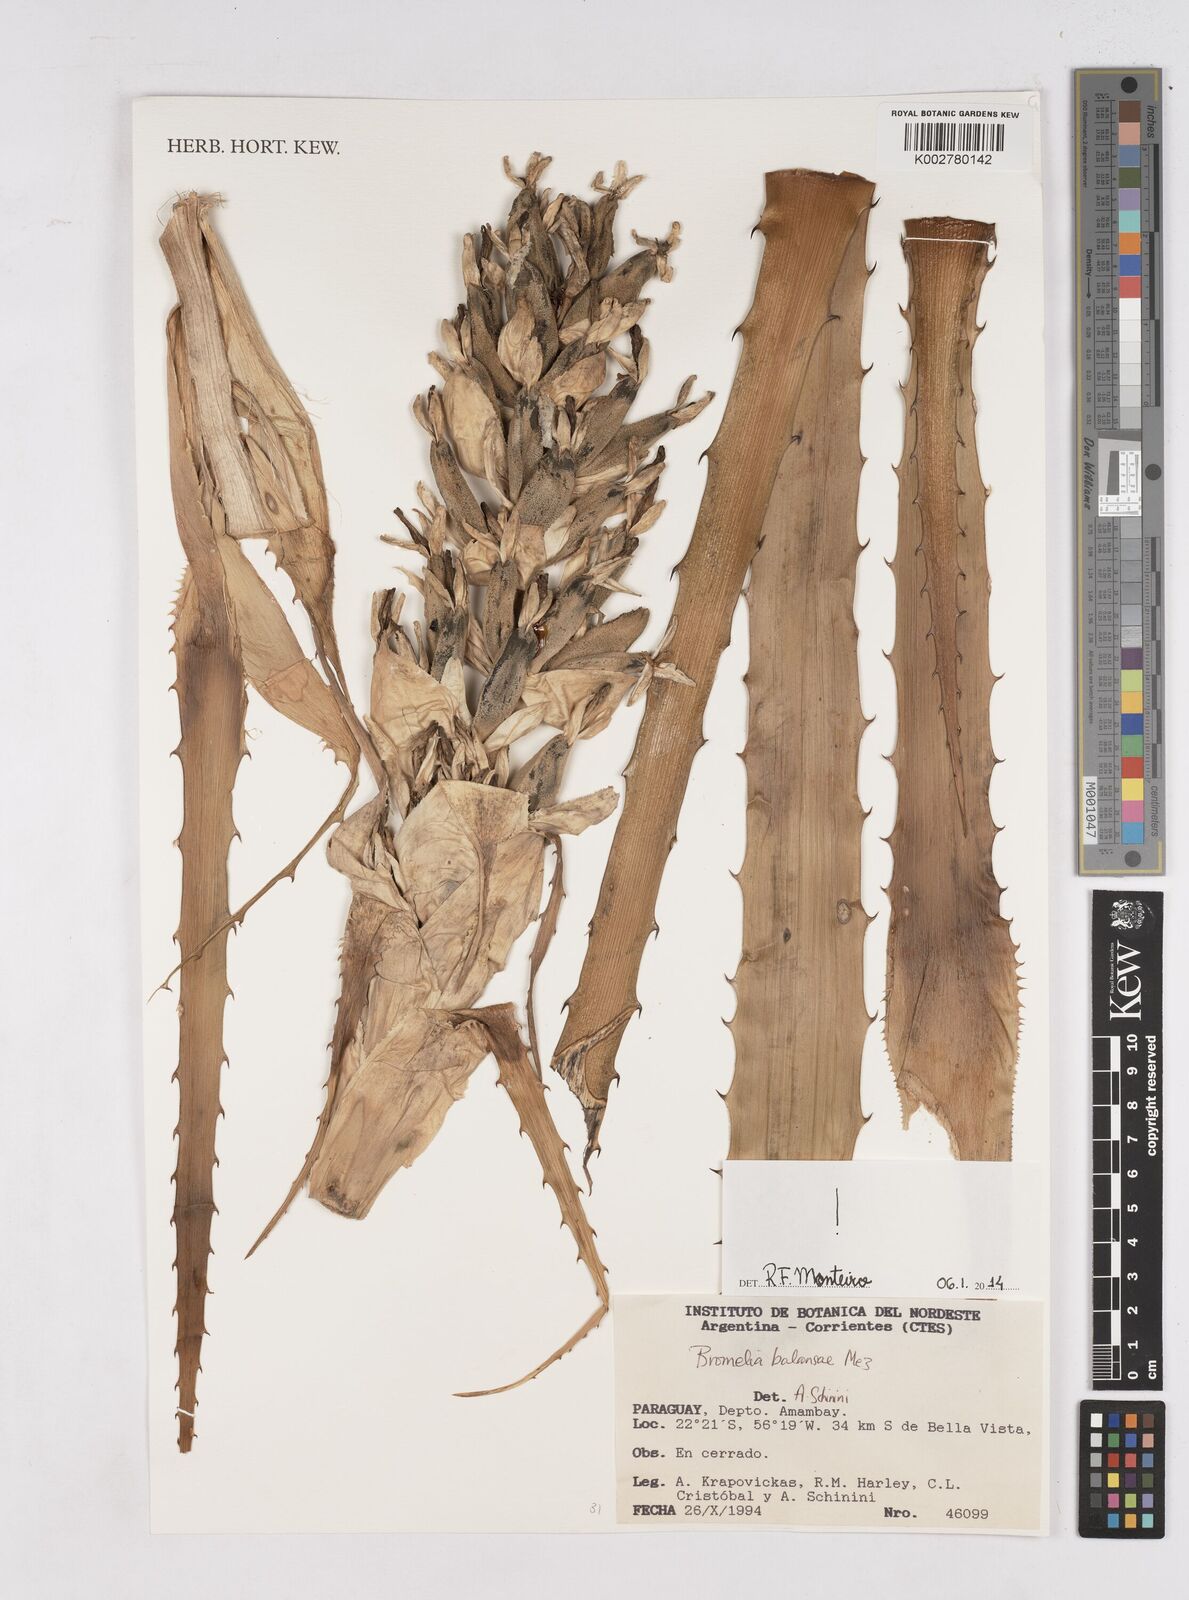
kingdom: Plantae
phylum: Tracheophyta
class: Liliopsida
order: Poales
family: Bromeliaceae
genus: Bromelia
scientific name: Bromelia balansae
